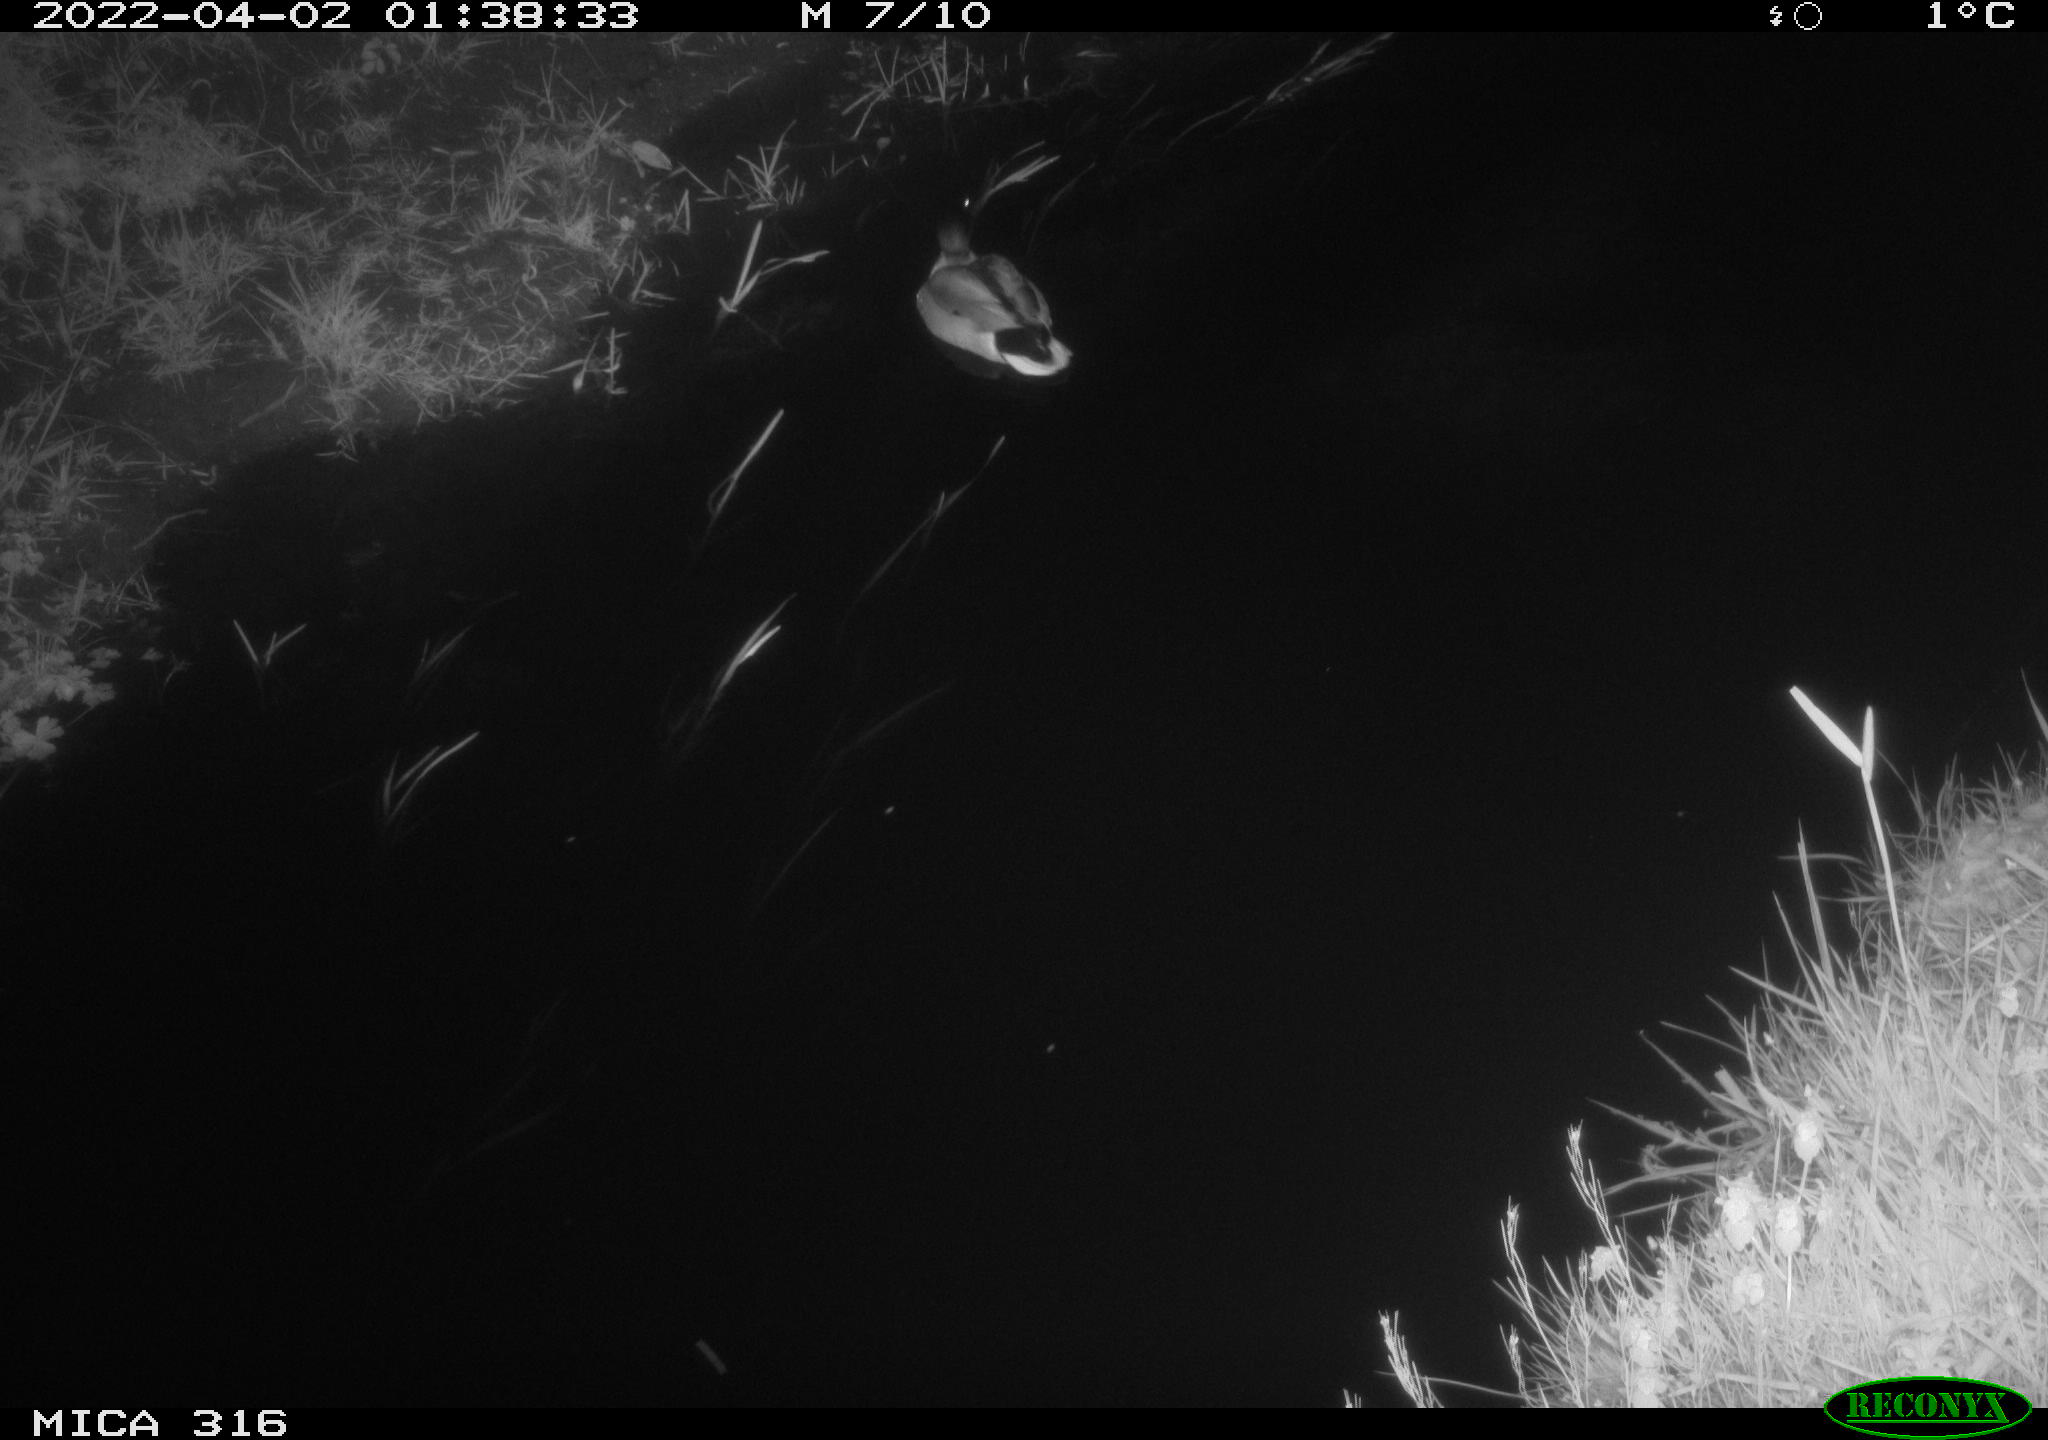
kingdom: Animalia
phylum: Chordata
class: Aves
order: Anseriformes
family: Anatidae
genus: Anas
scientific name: Anas platyrhynchos
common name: Mallard
